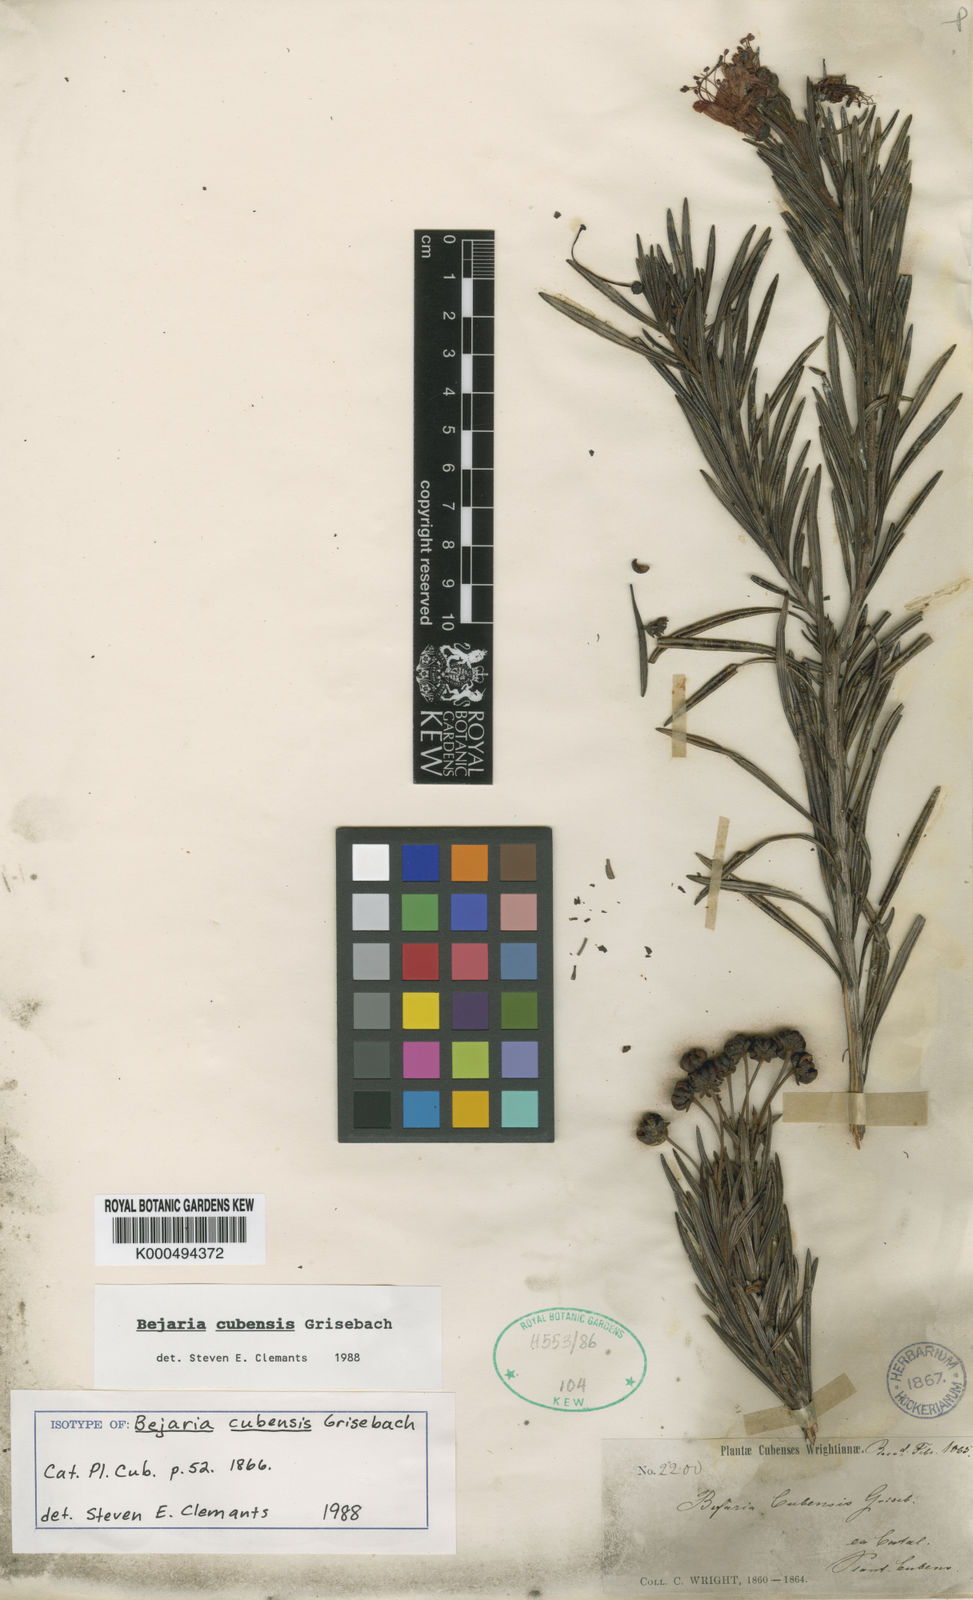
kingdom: Plantae
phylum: Tracheophyta
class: Magnoliopsida
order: Ericales
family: Ericaceae
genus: Bejaria
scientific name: Bejaria cubensis
